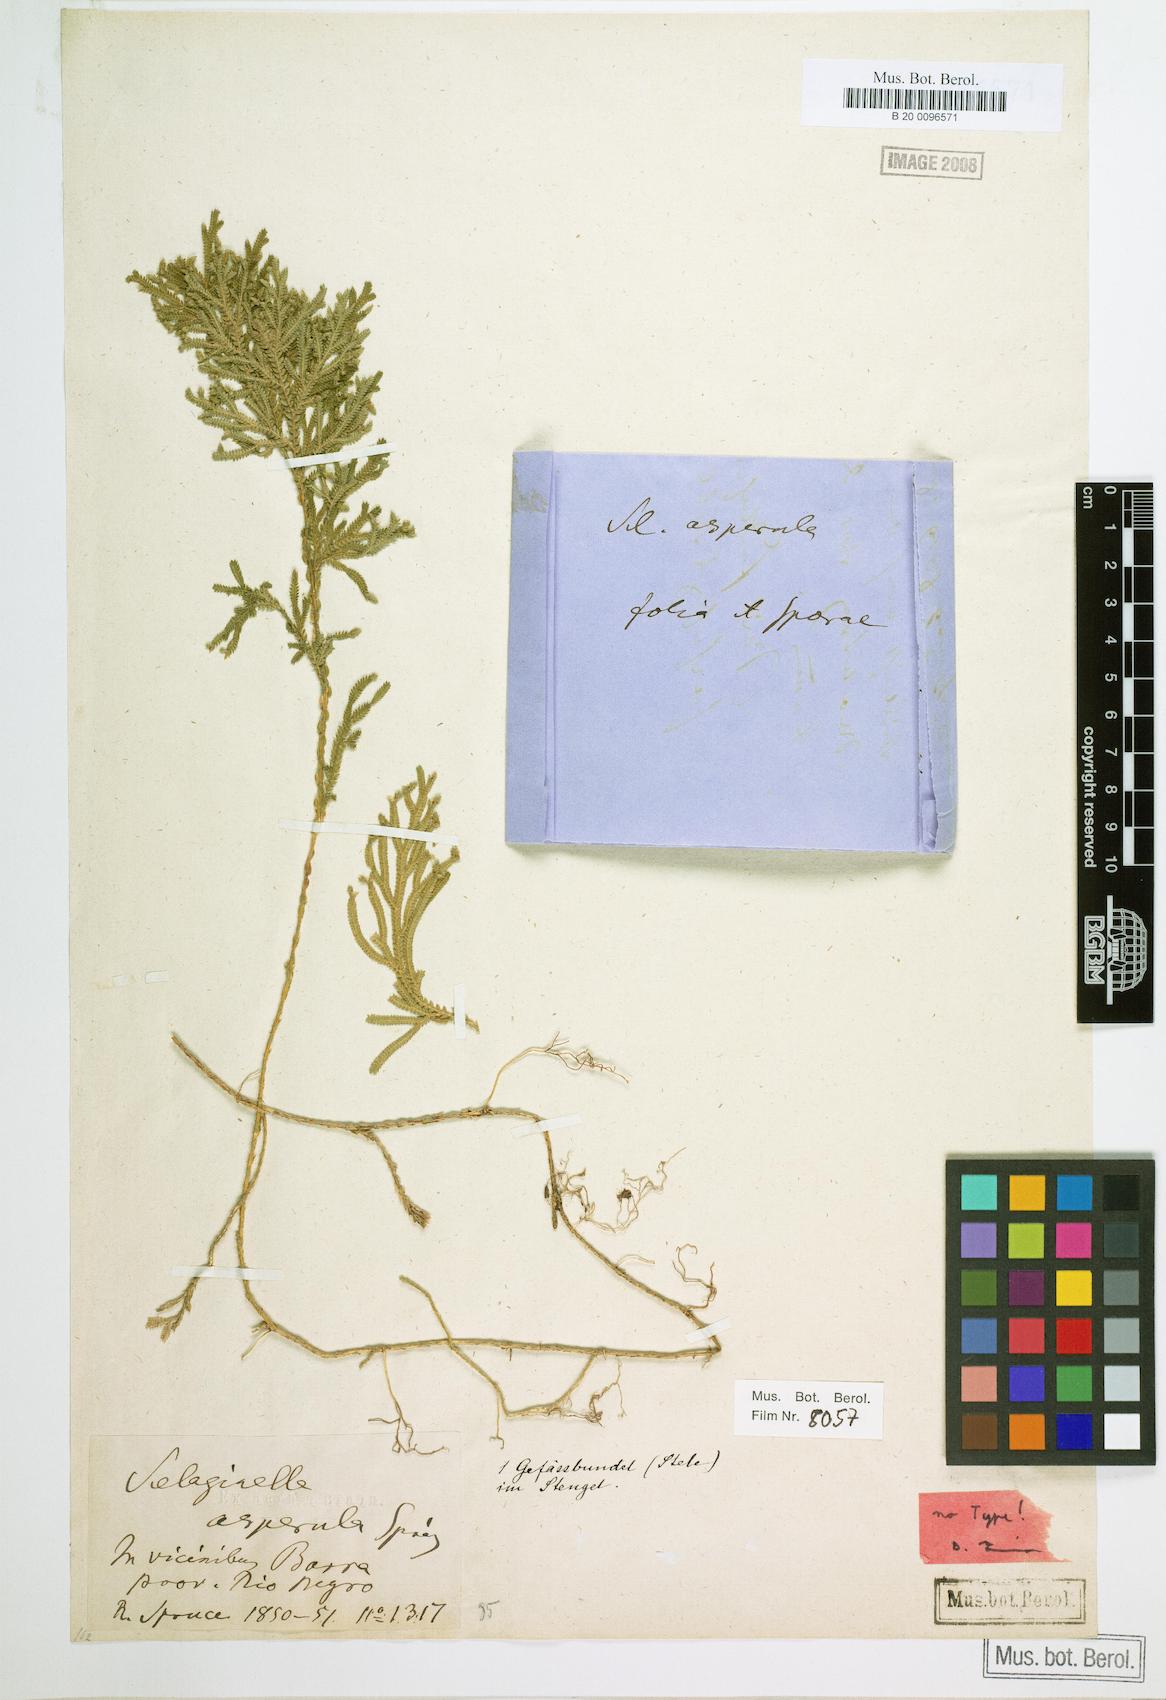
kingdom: Plantae
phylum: Tracheophyta
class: Lycopodiopsida
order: Selaginellales
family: Selaginellaceae
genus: Selaginella
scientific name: Selaginella asperula
